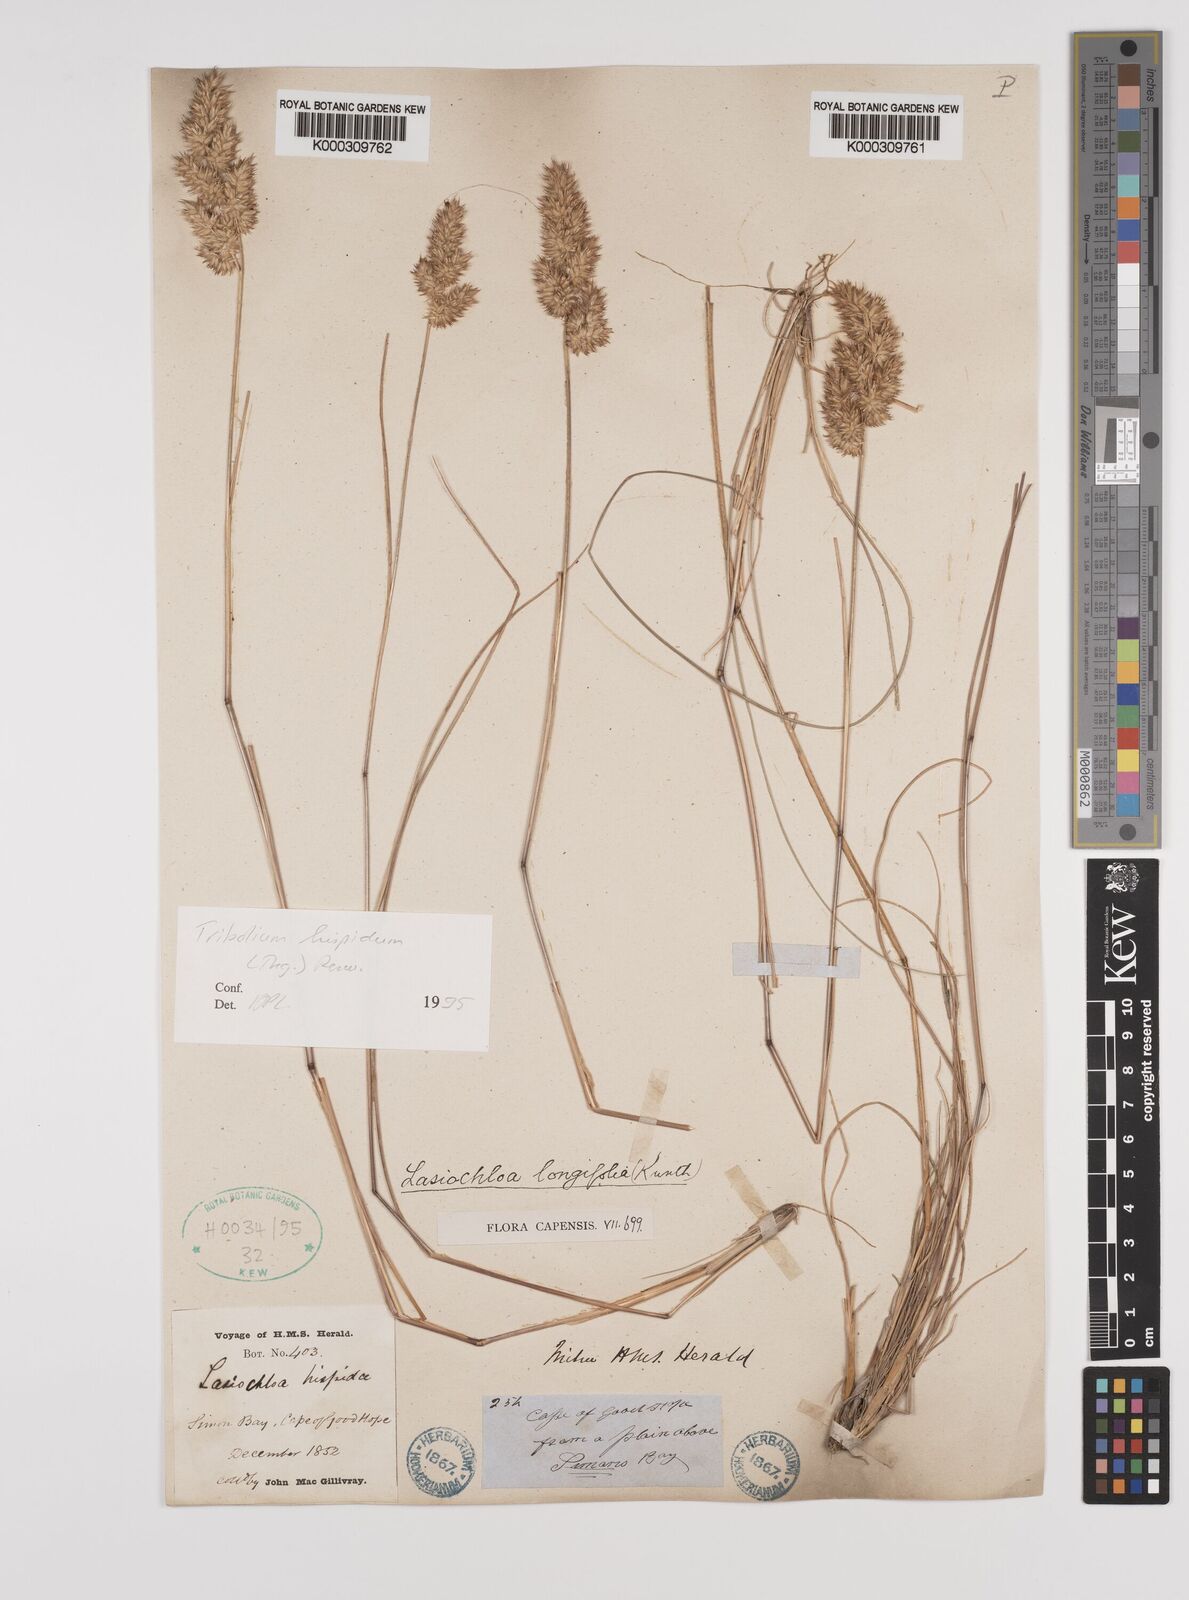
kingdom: Plantae
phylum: Tracheophyta
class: Liliopsida
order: Poales
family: Poaceae
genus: Tribolium
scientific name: Tribolium hispidum
